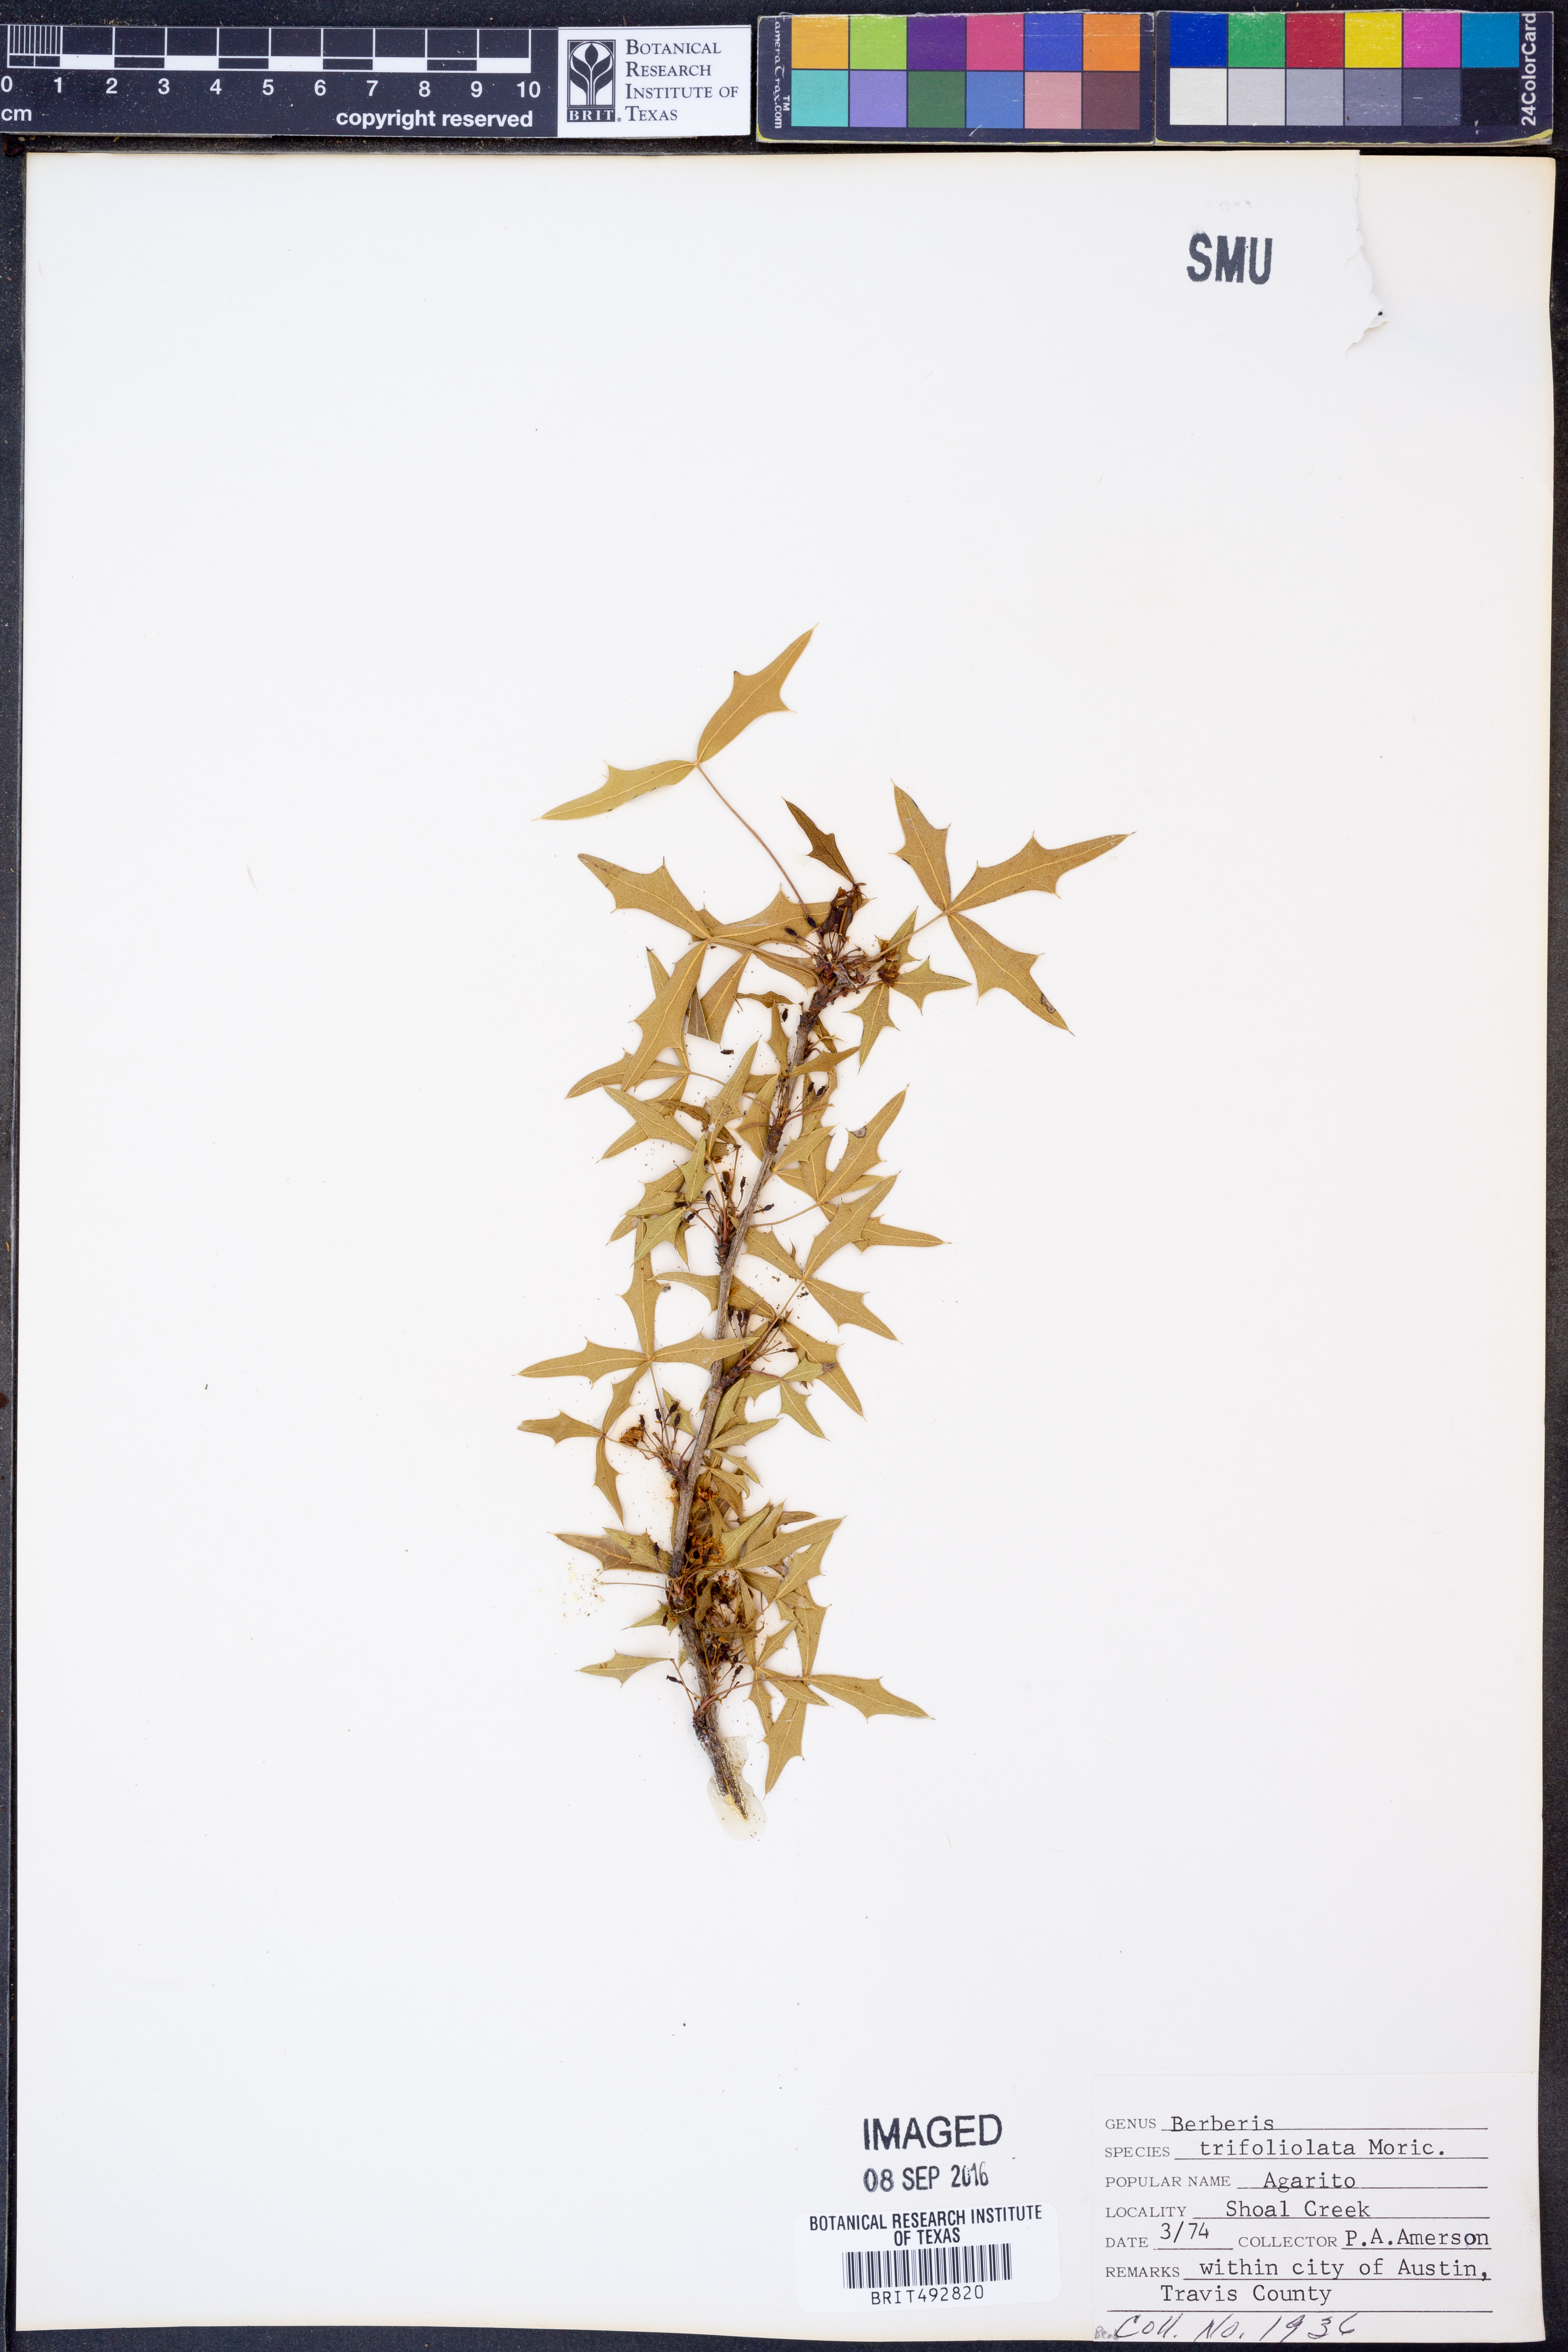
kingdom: Plantae
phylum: Tracheophyta
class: Magnoliopsida
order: Ranunculales
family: Berberidaceae
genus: Alloberberis
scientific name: Alloberberis trifoliolata
